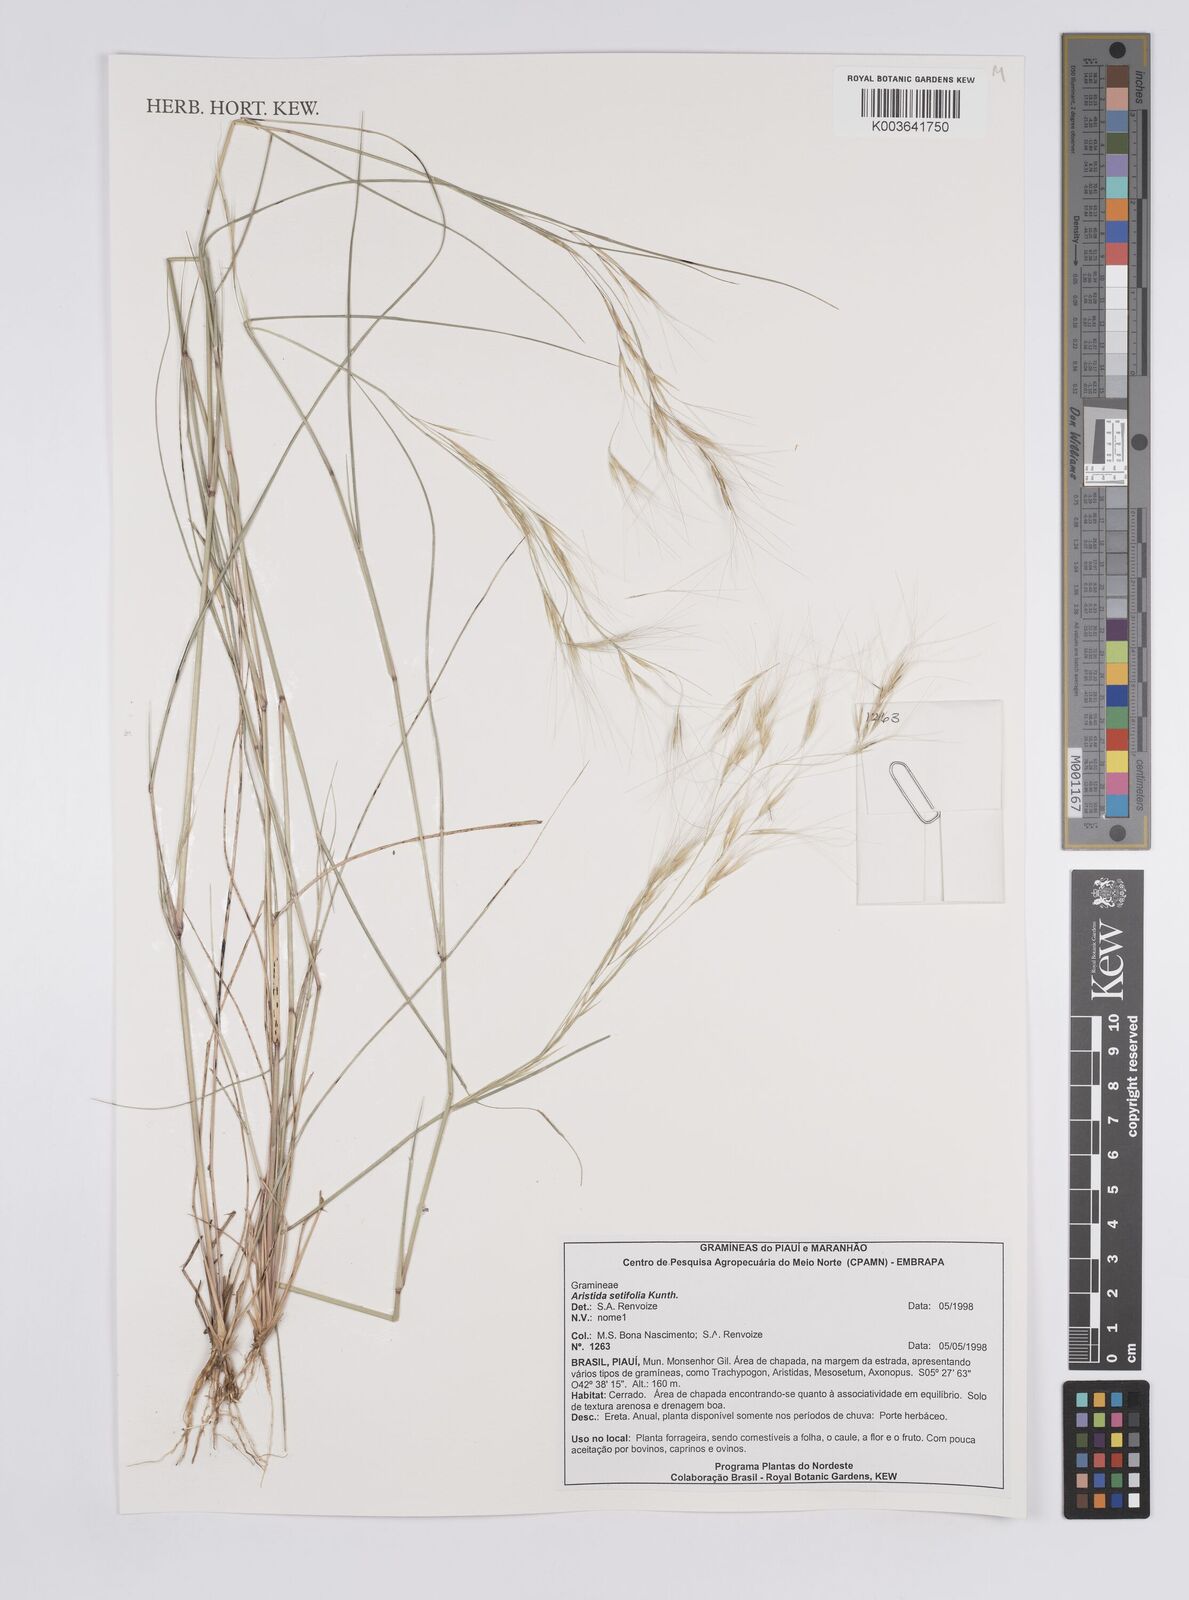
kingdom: Plantae
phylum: Tracheophyta
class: Liliopsida
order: Poales
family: Poaceae
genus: Aristida
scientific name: Aristida setifolia
